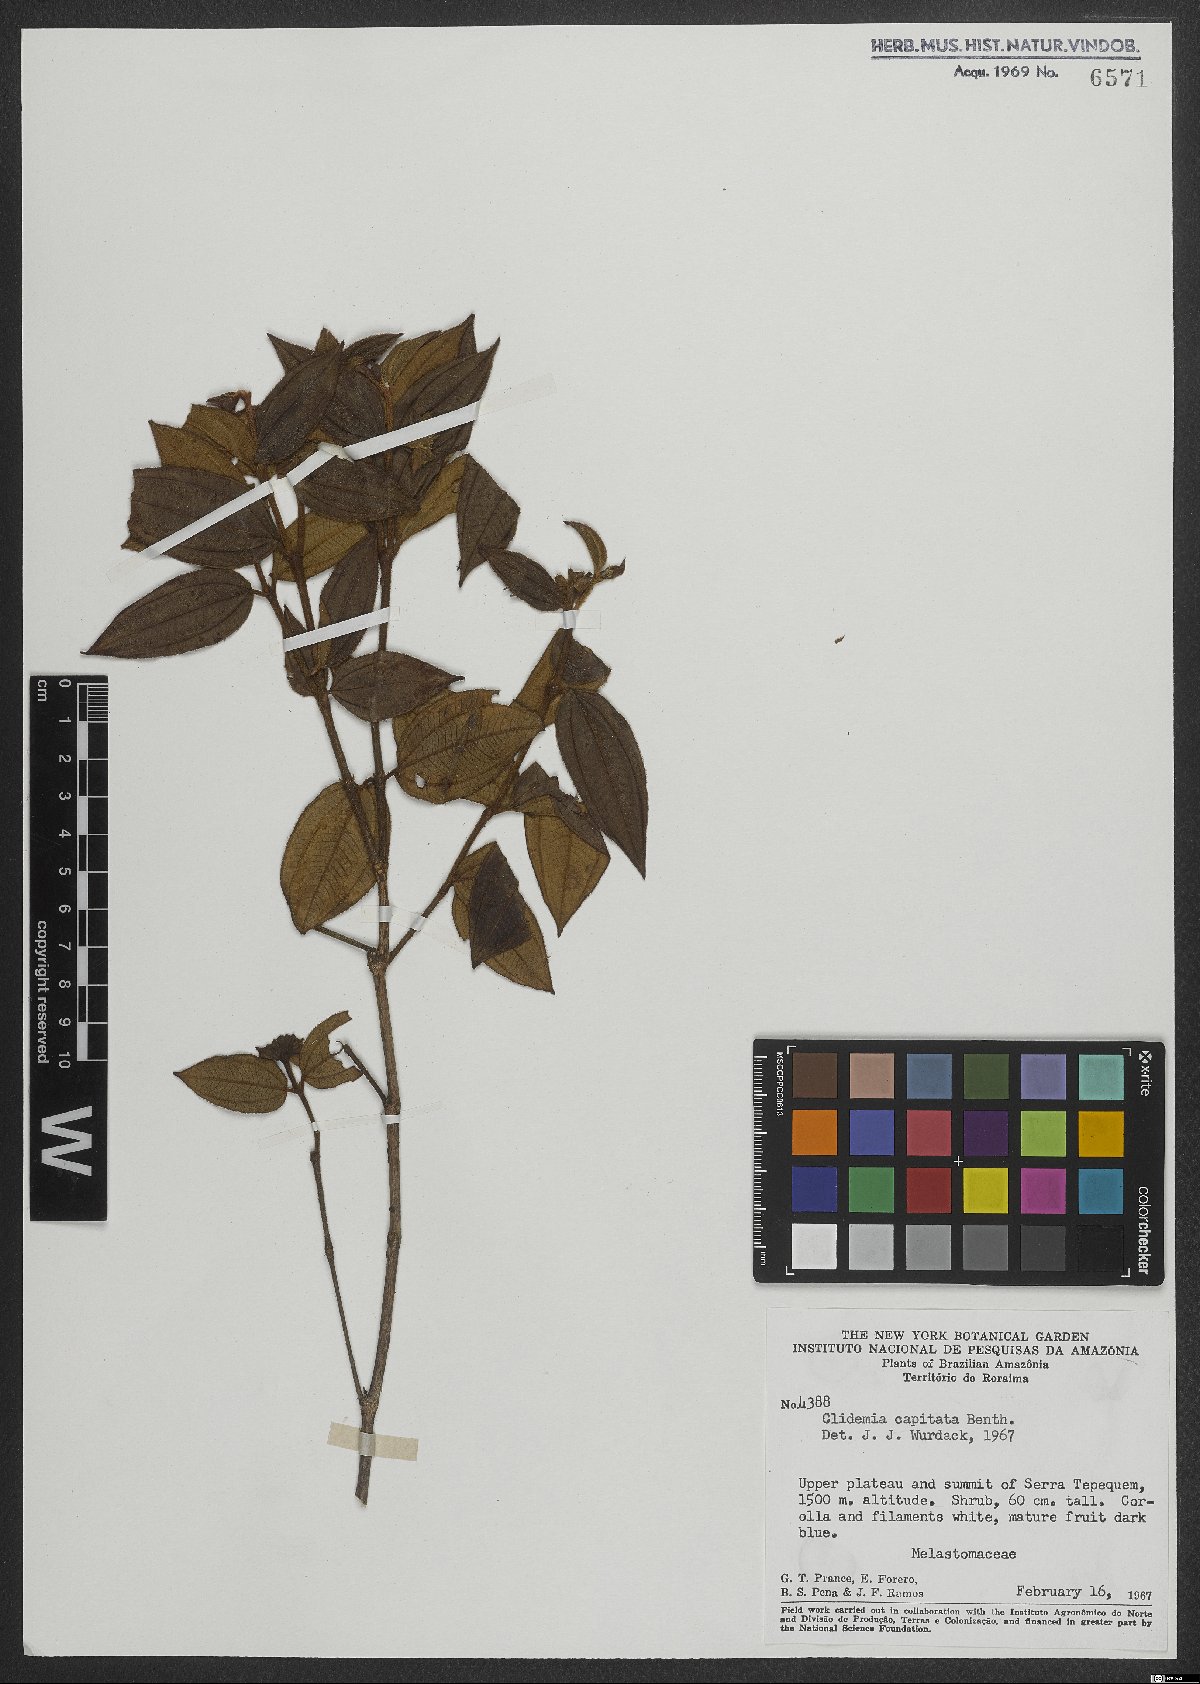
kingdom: Plantae
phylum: Tracheophyta
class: Magnoliopsida
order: Myrtales
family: Melastomataceae
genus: Miconia
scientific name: Miconia benthamii
